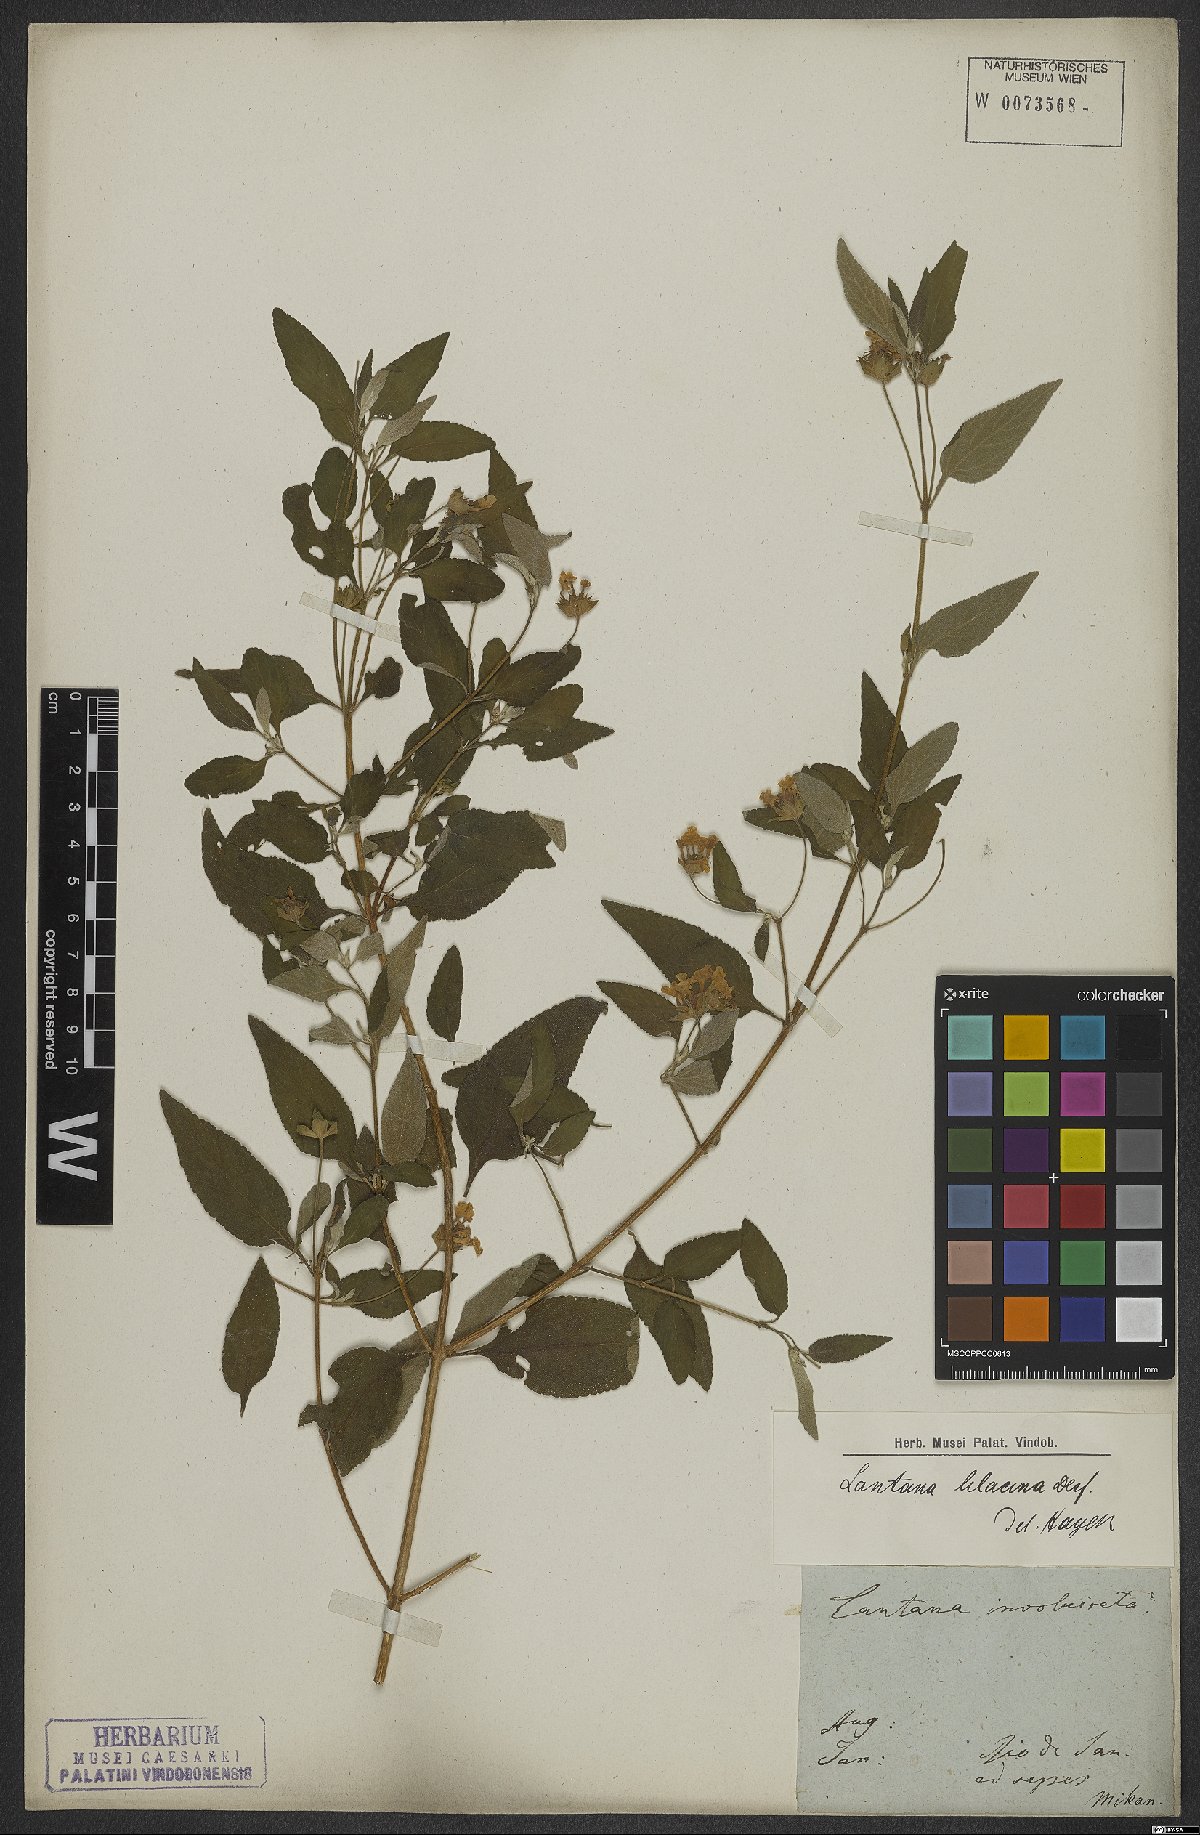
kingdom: Plantae
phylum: Tracheophyta
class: Magnoliopsida
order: Lamiales
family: Verbenaceae
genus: Lantana
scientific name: Lantana fucata
